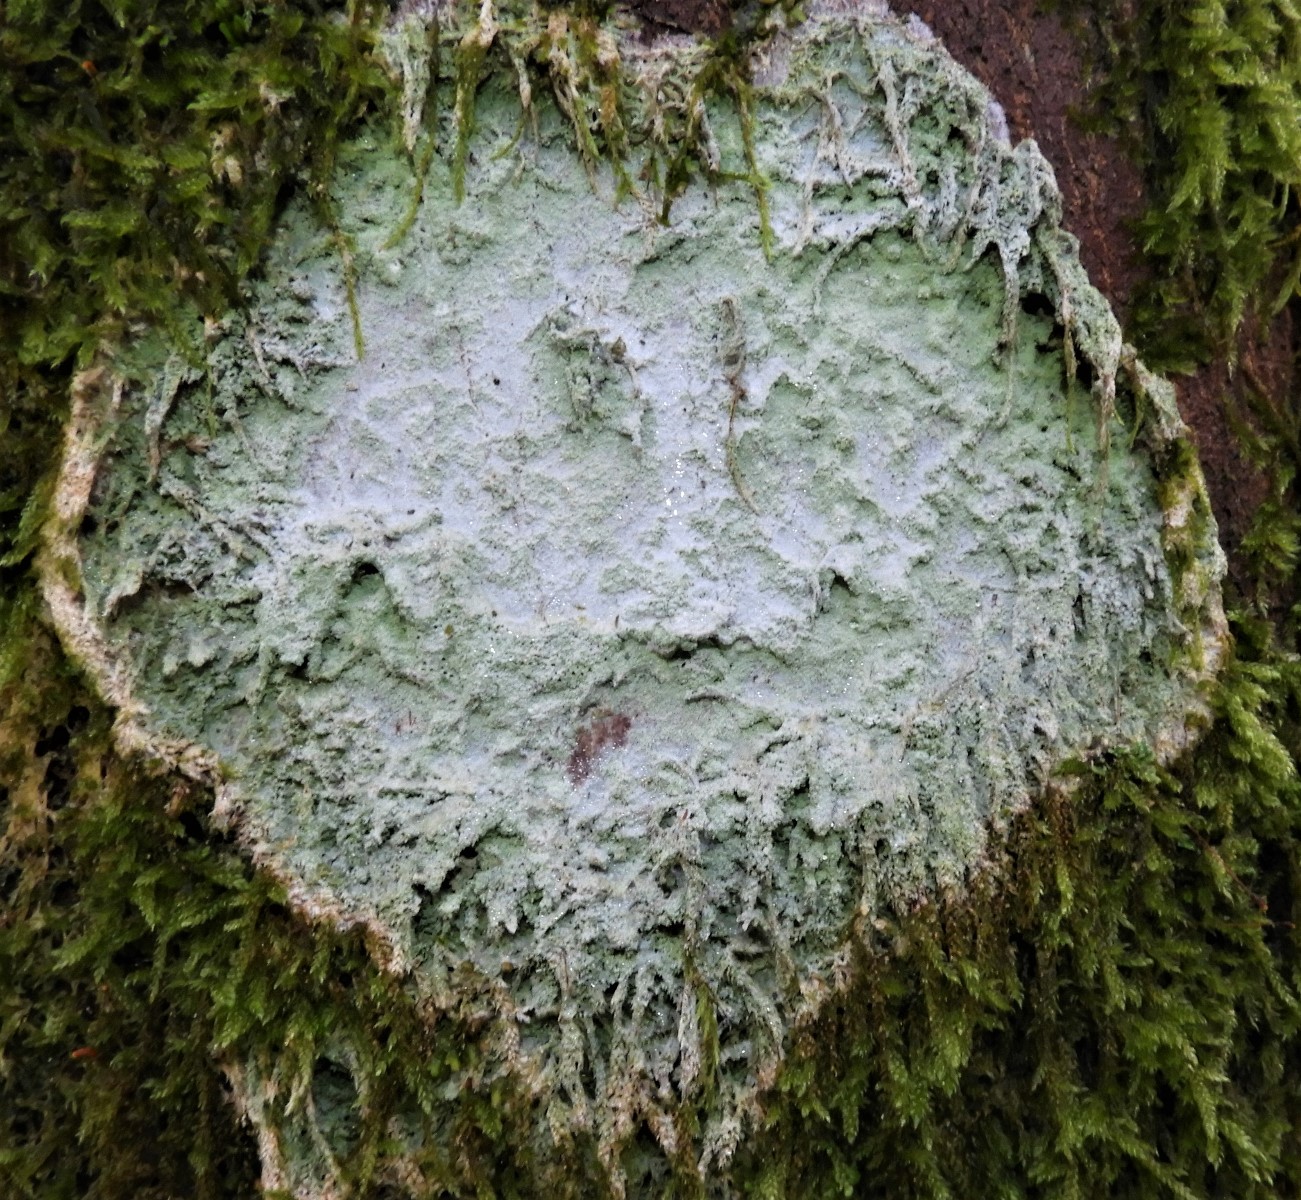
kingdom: Fungi
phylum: Ascomycota
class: Lecanoromycetes
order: Ostropales
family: Phlyctidaceae
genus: Phlyctis
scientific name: Phlyctis argena
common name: almindelig sølvlav
